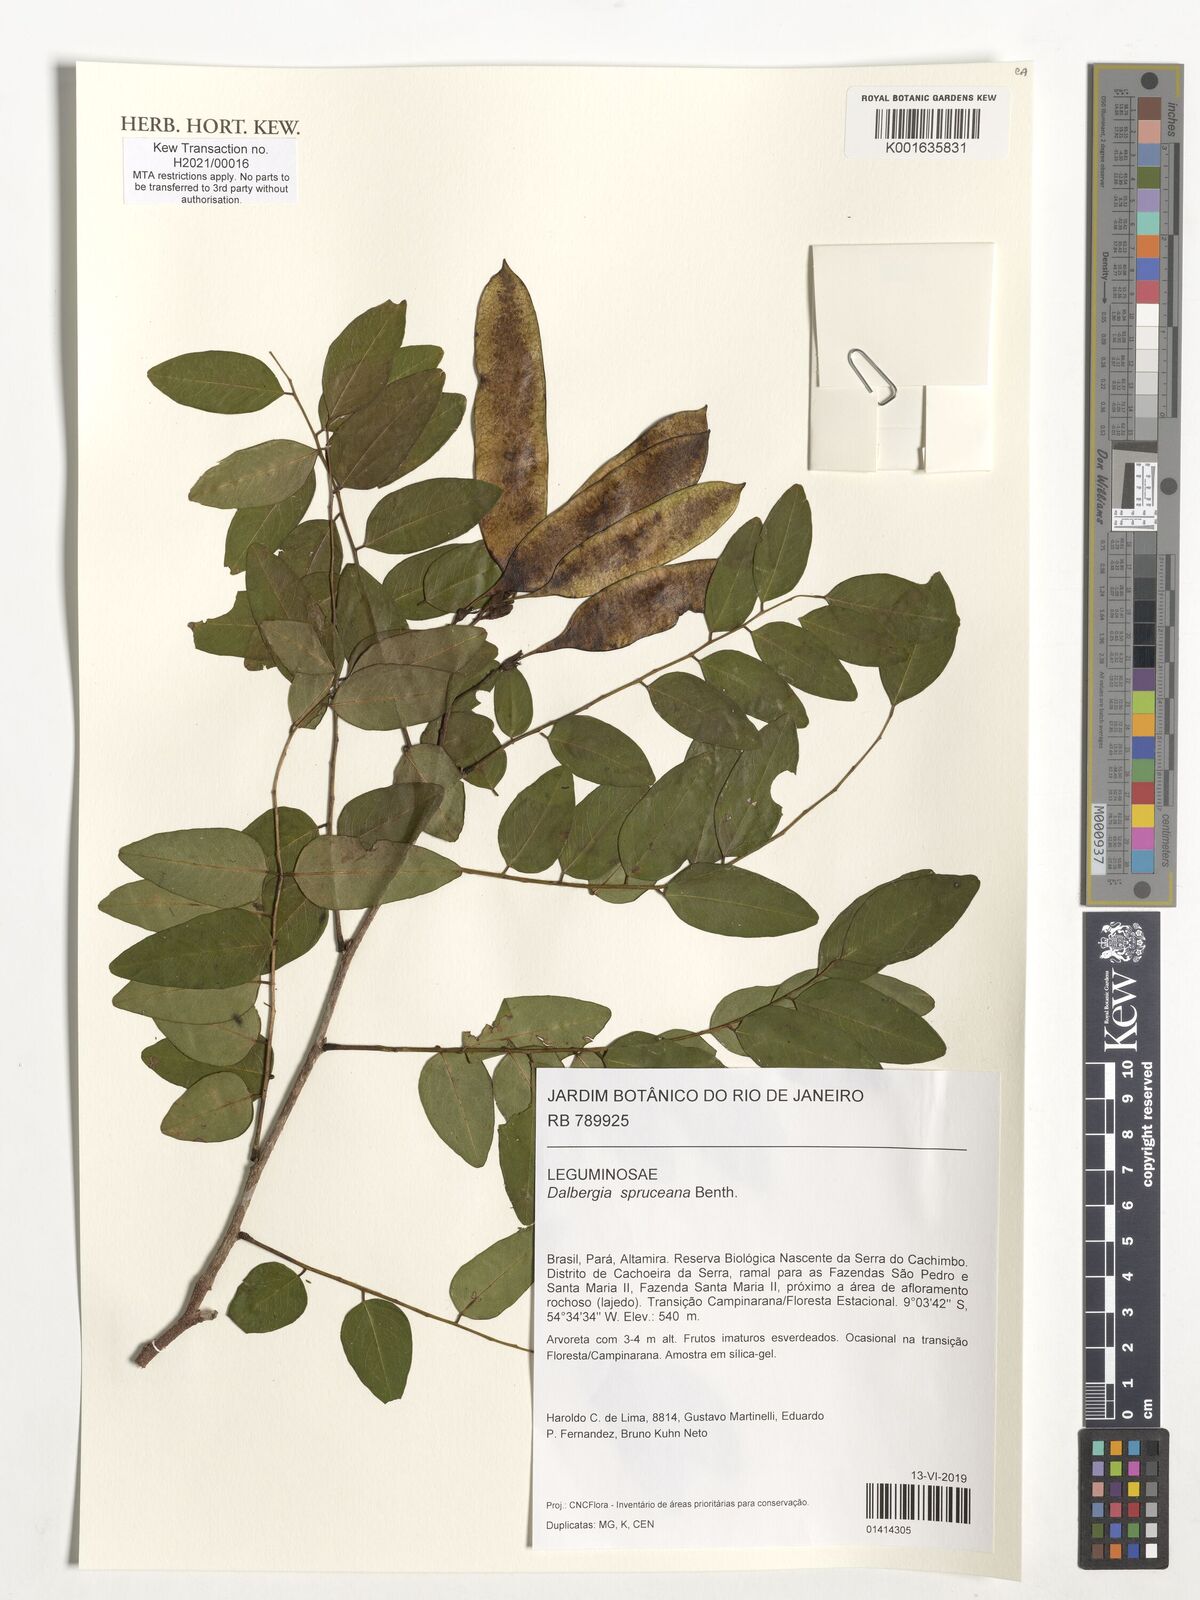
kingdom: Plantae
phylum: Tracheophyta
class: Magnoliopsida
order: Fabales
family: Fabaceae
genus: Dalbergia
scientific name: Dalbergia spruceana
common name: Amazon rosewood
